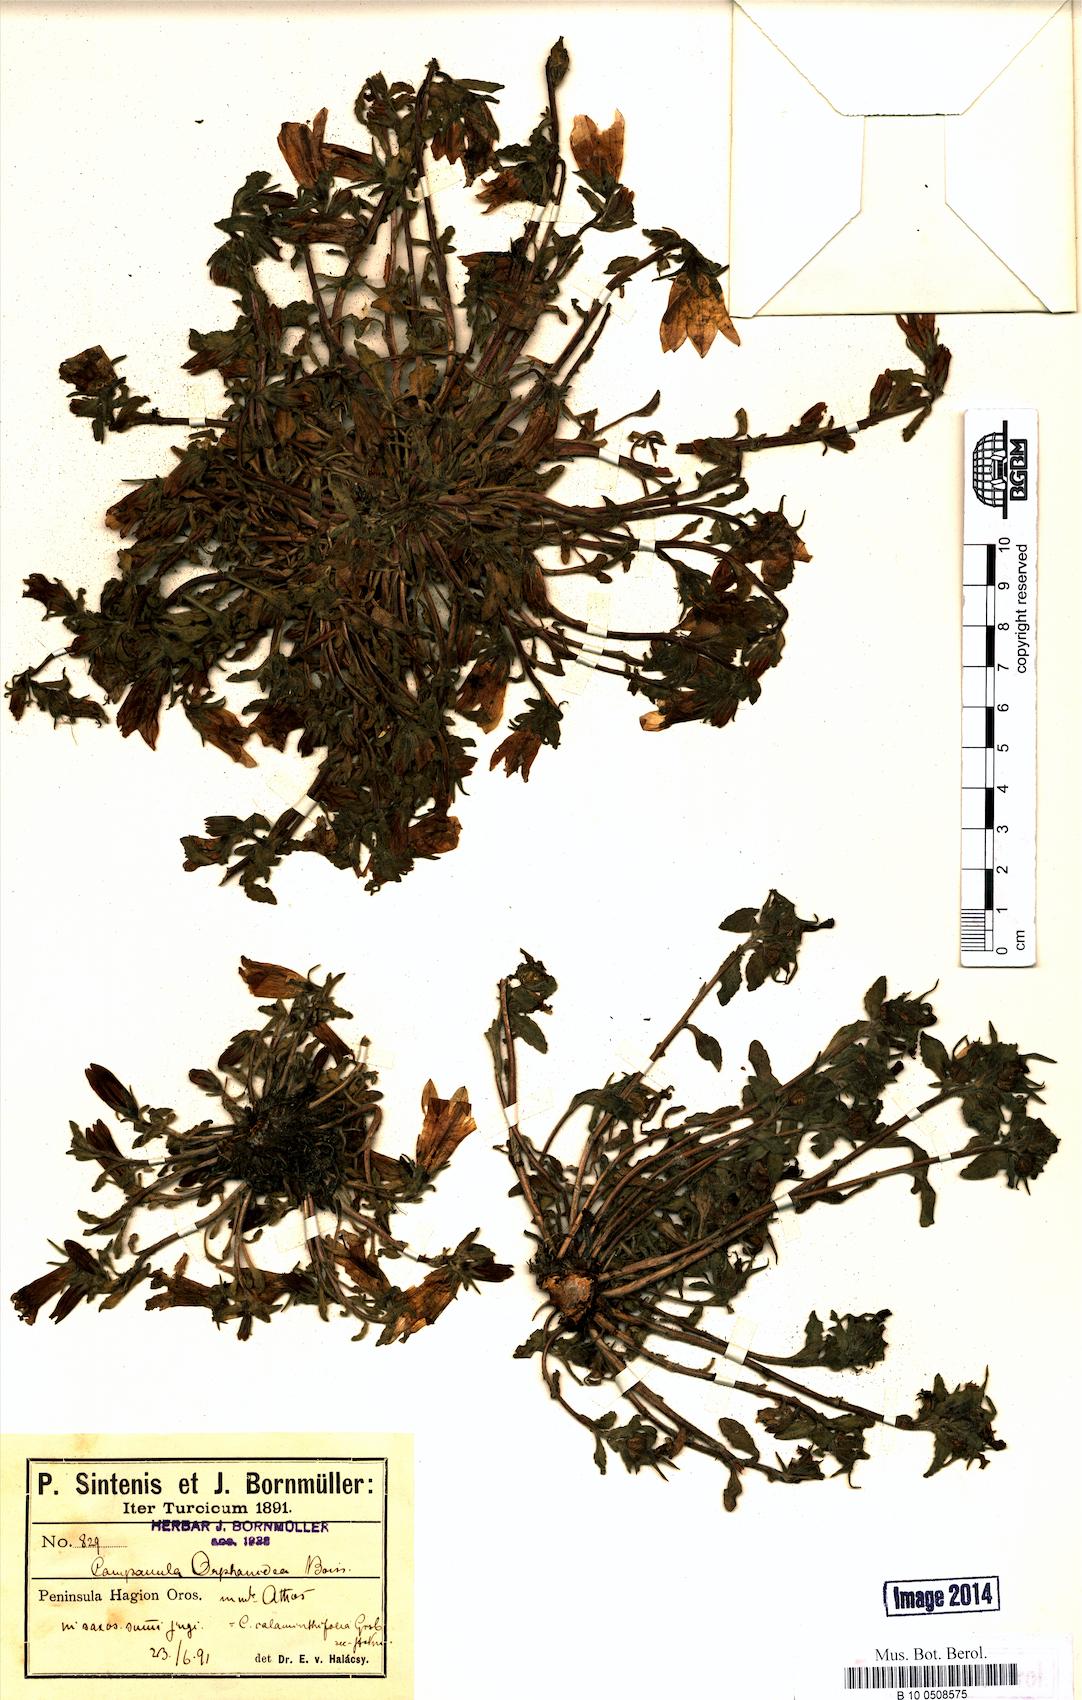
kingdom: Plantae
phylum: Tracheophyta
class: Magnoliopsida
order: Asterales
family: Campanulaceae
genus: Campanula
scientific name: Campanula orphanidea
